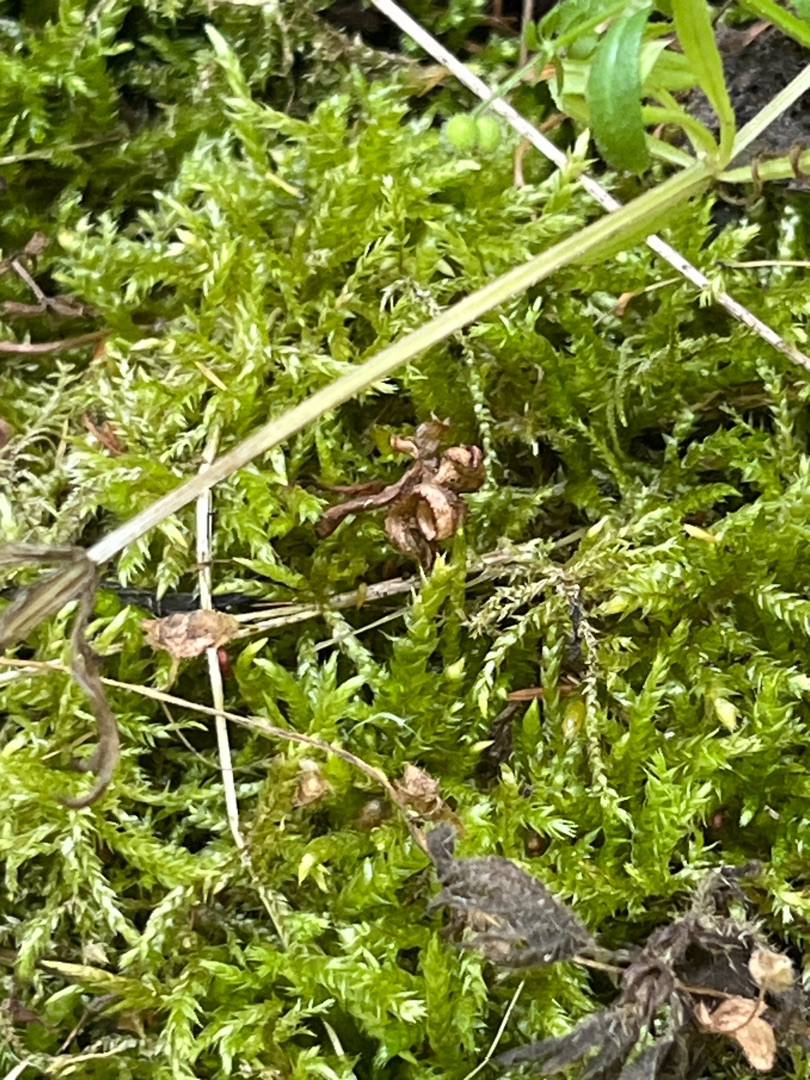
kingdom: Plantae
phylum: Bryophyta
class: Bryopsida
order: Hypnales
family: Brachytheciaceae
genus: Brachythecium
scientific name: Brachythecium rutabulum
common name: Almindelig kortkapsel
